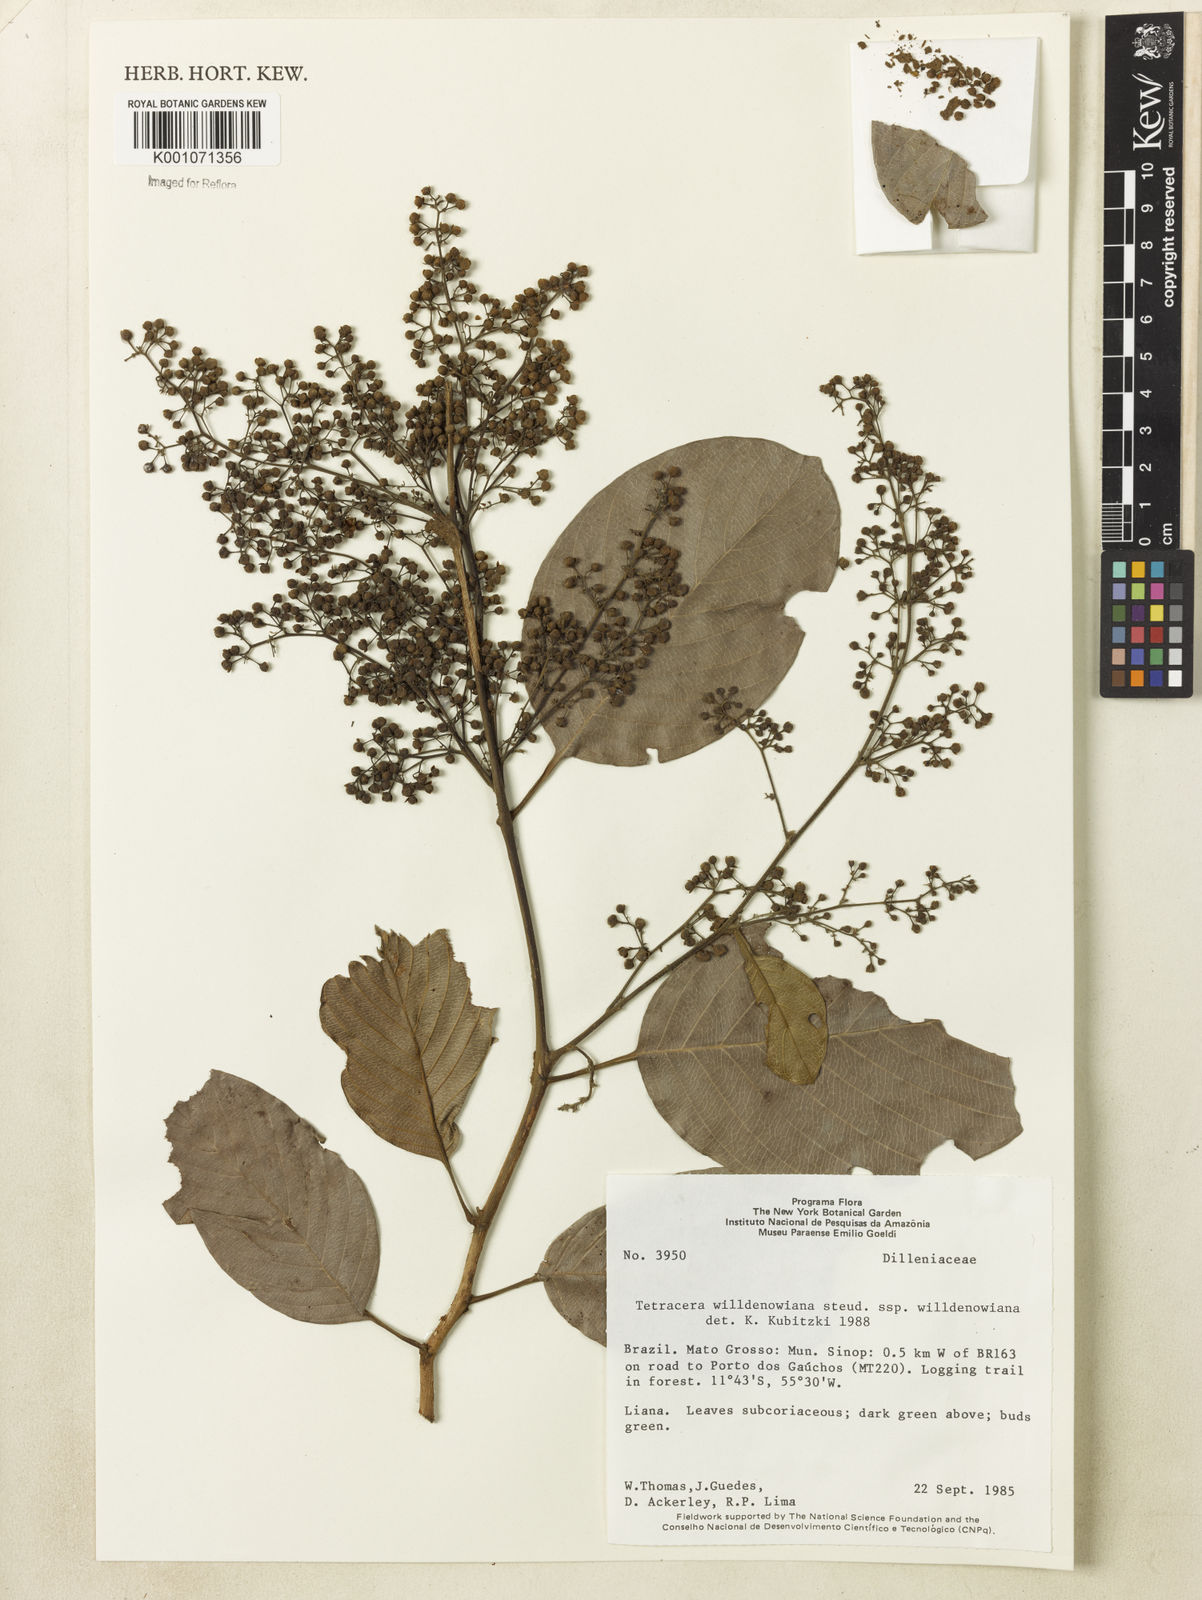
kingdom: Plantae
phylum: Tracheophyta
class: Magnoliopsida
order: Dilleniales
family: Dilleniaceae
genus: Tetracera
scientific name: Tetracera willdenowiana
